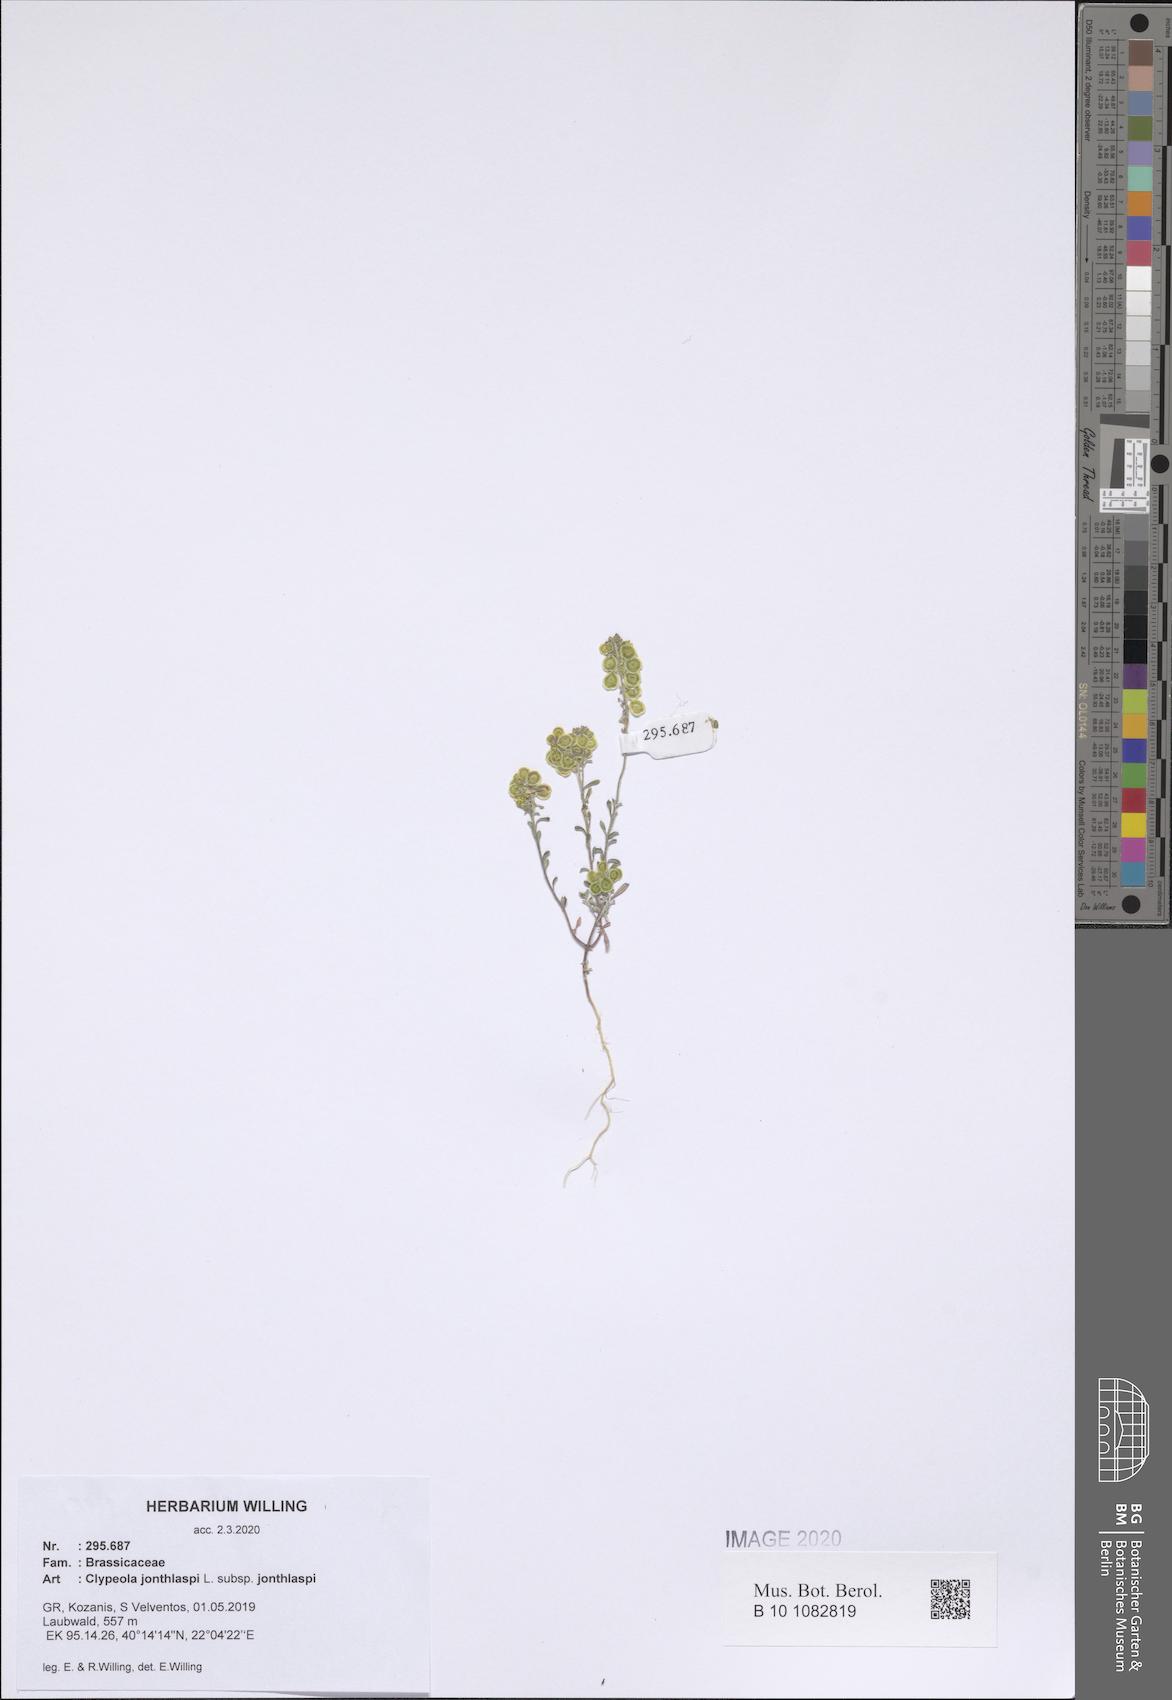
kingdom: Plantae
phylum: Tracheophyta
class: Magnoliopsida
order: Brassicales
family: Brassicaceae
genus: Clypeola
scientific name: Clypeola jonthlaspi
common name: Disk cress
